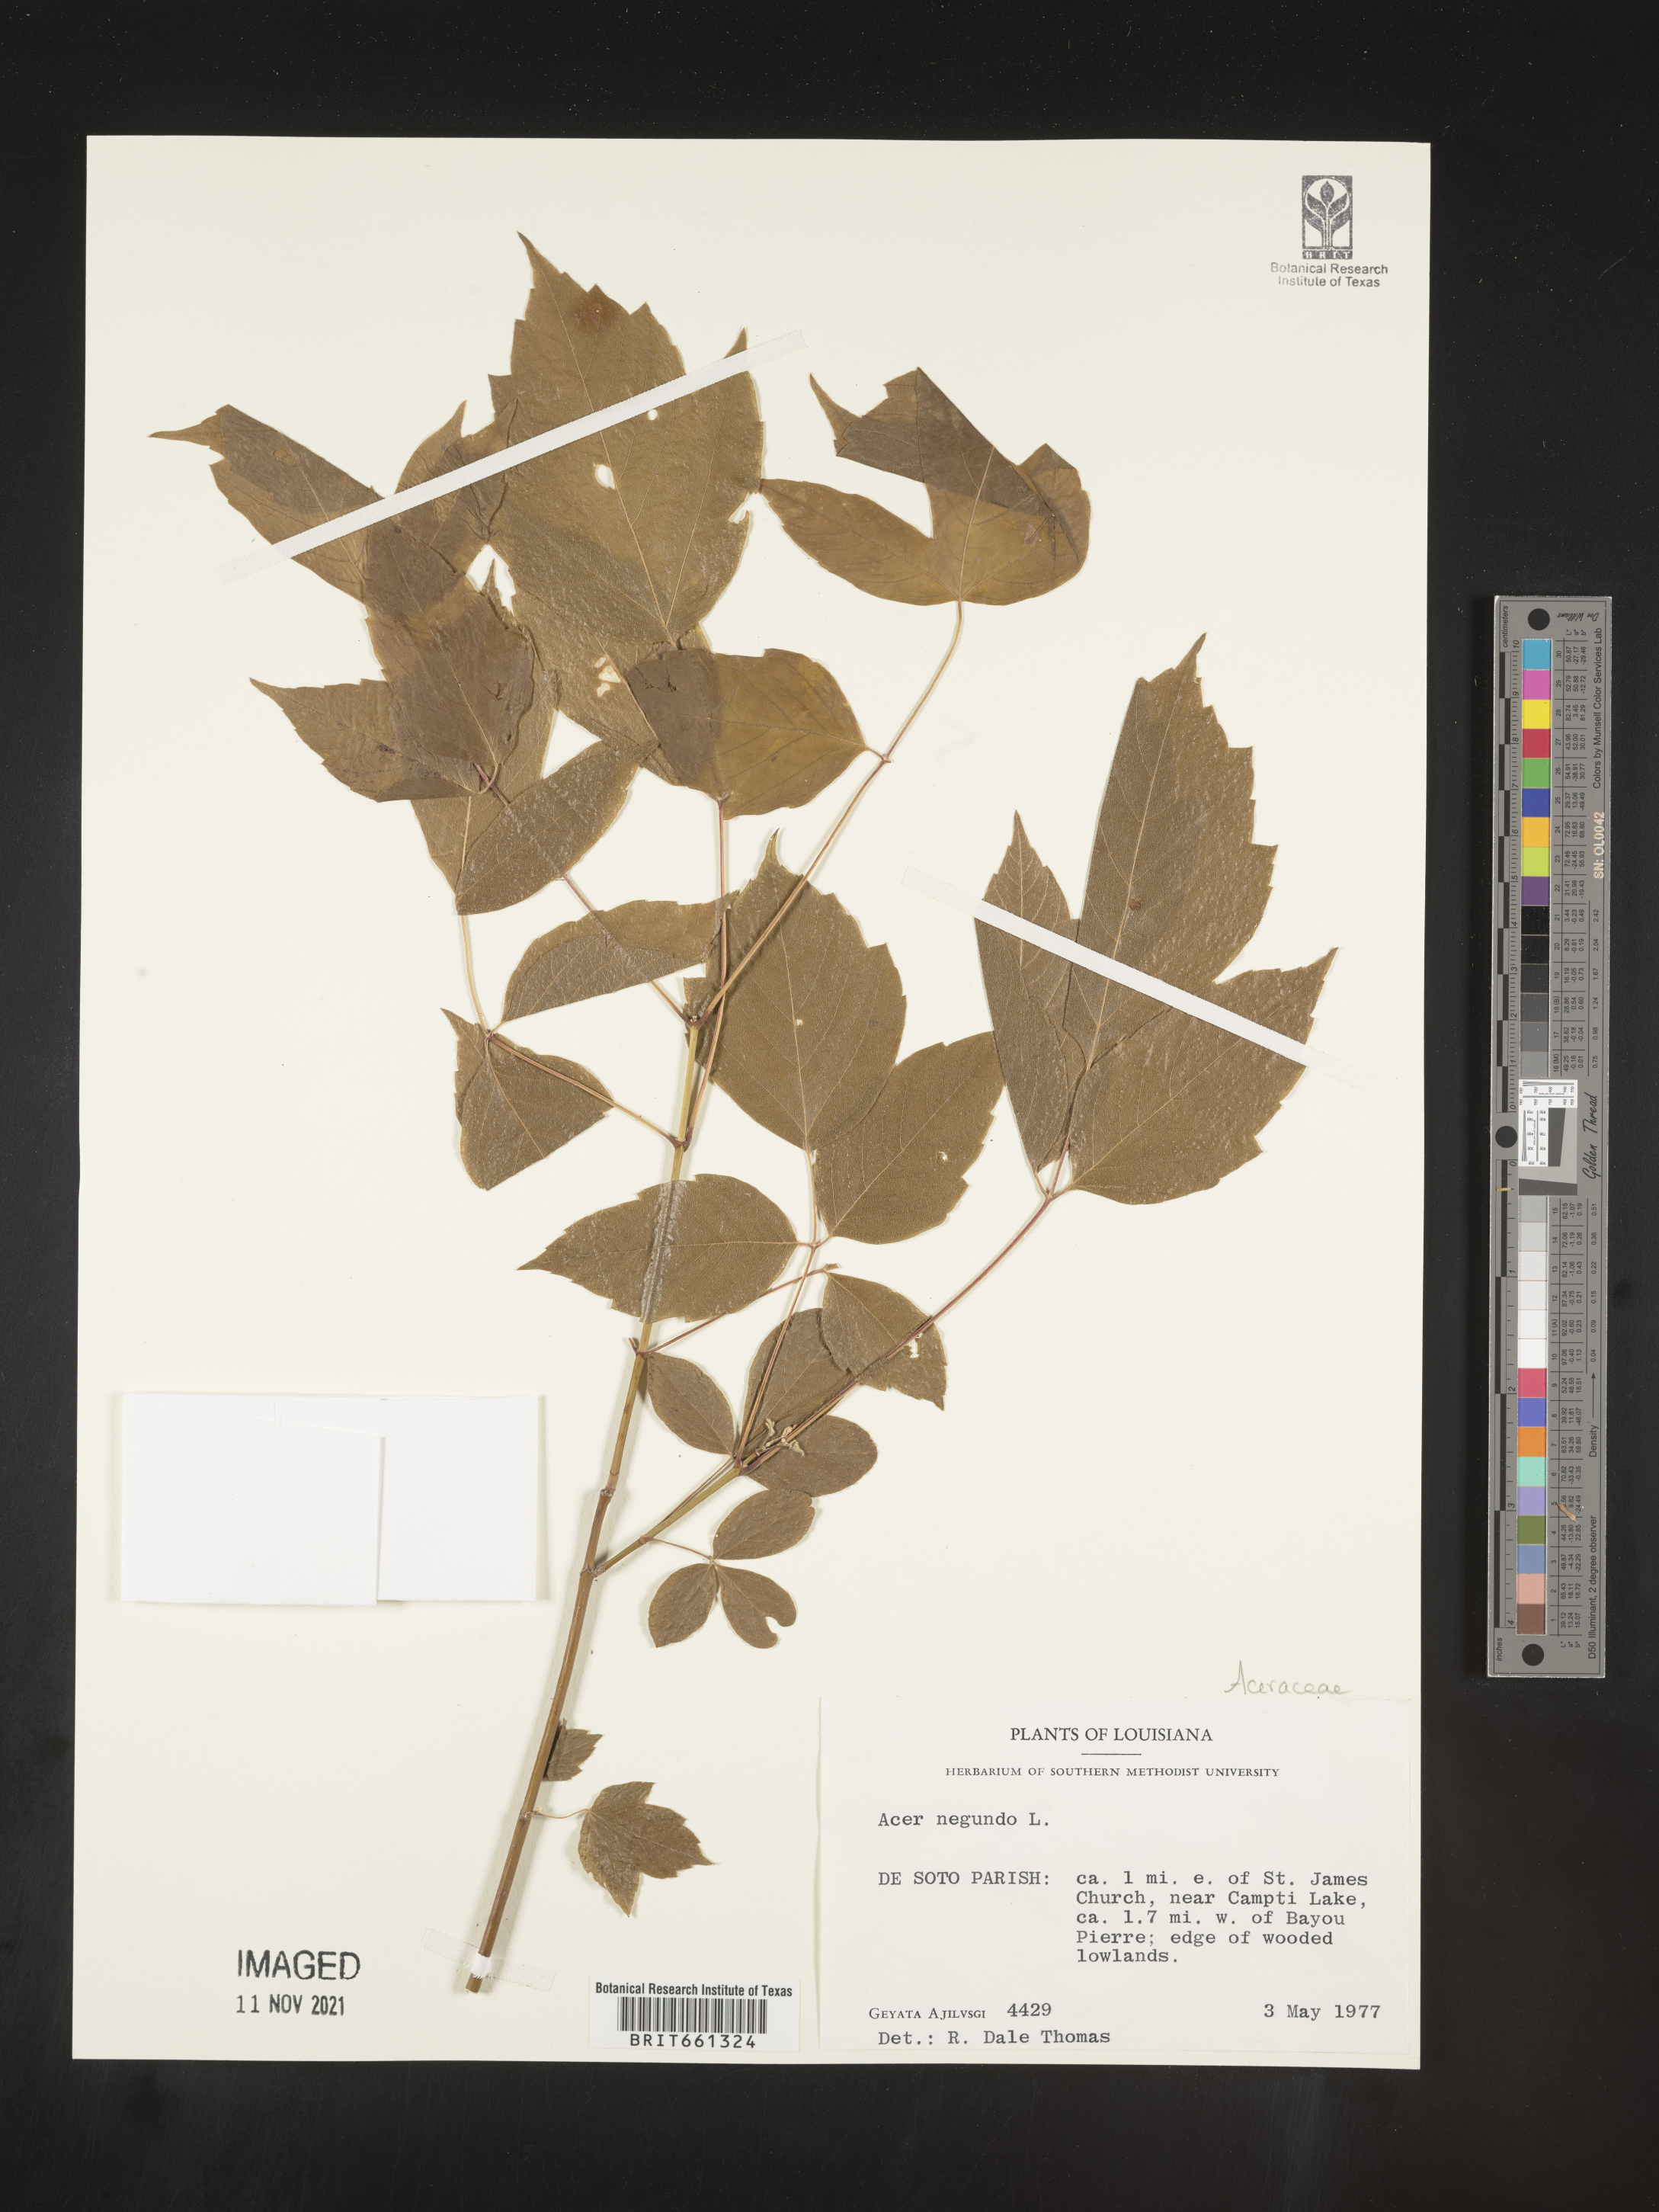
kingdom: Plantae
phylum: Tracheophyta
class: Magnoliopsida
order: Sapindales
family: Sapindaceae
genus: Acer
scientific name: Acer negundo
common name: Ashleaf maple
